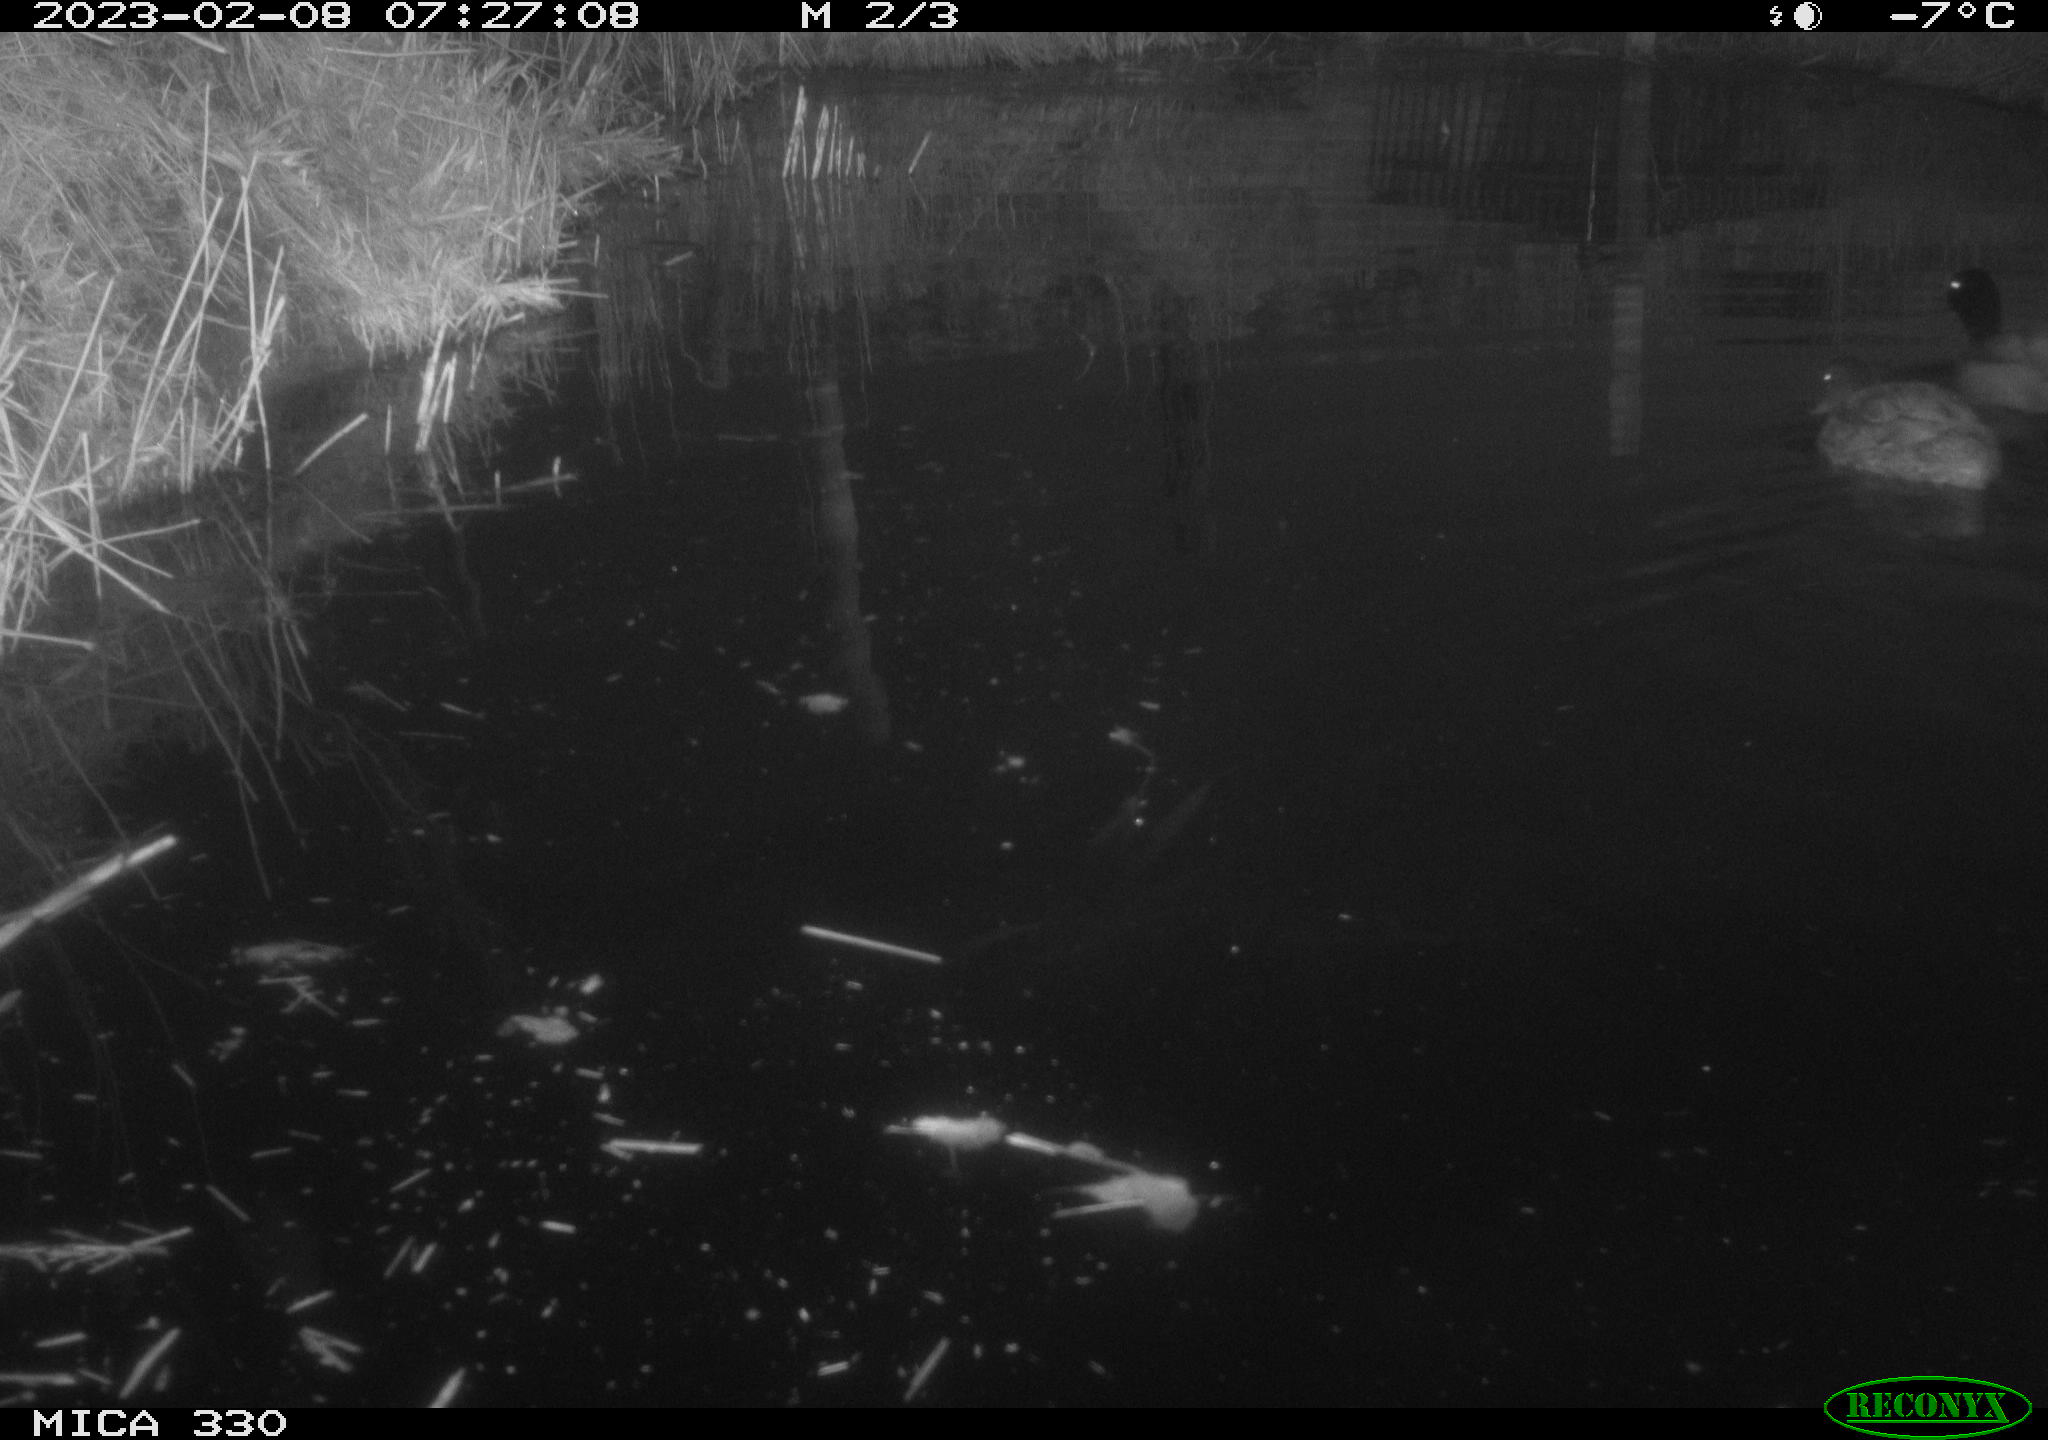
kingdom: Animalia
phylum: Chordata
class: Aves
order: Anseriformes
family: Anatidae
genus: Anas
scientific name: Anas
